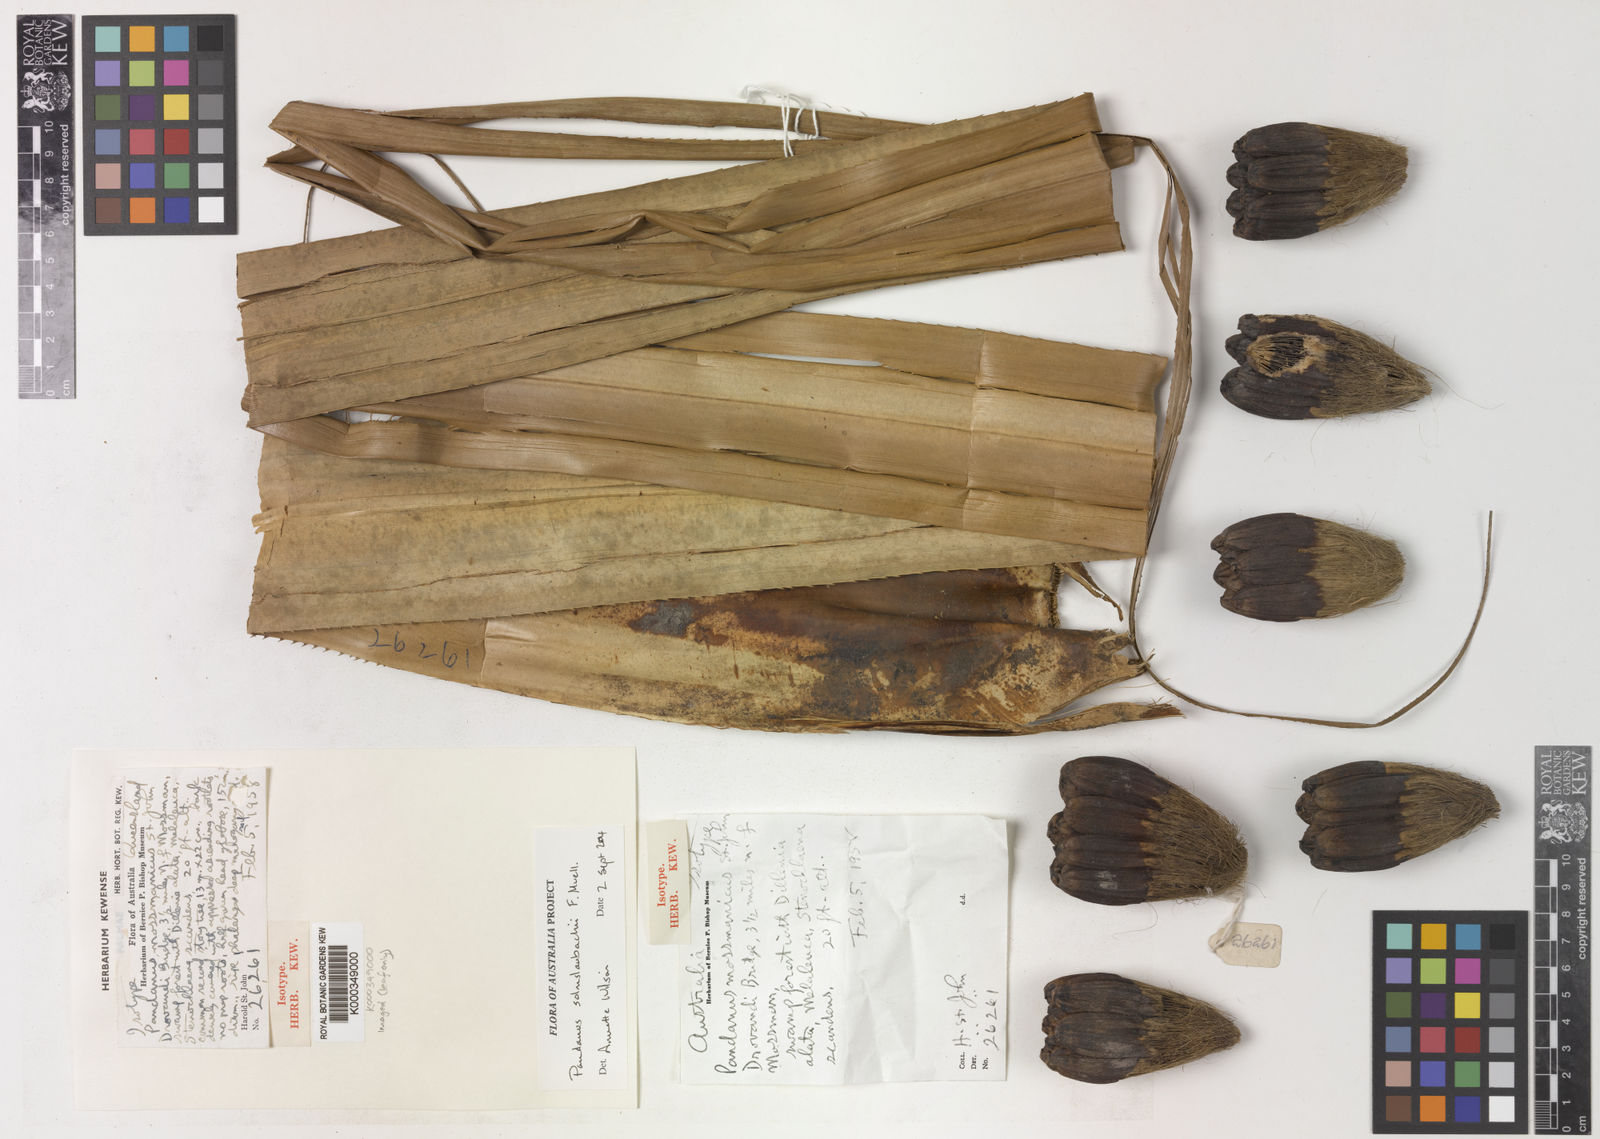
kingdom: Plantae
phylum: Tracheophyta
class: Liliopsida
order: Pandanales
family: Pandanaceae
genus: Pandanus
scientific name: Pandanus solms-laubachii
